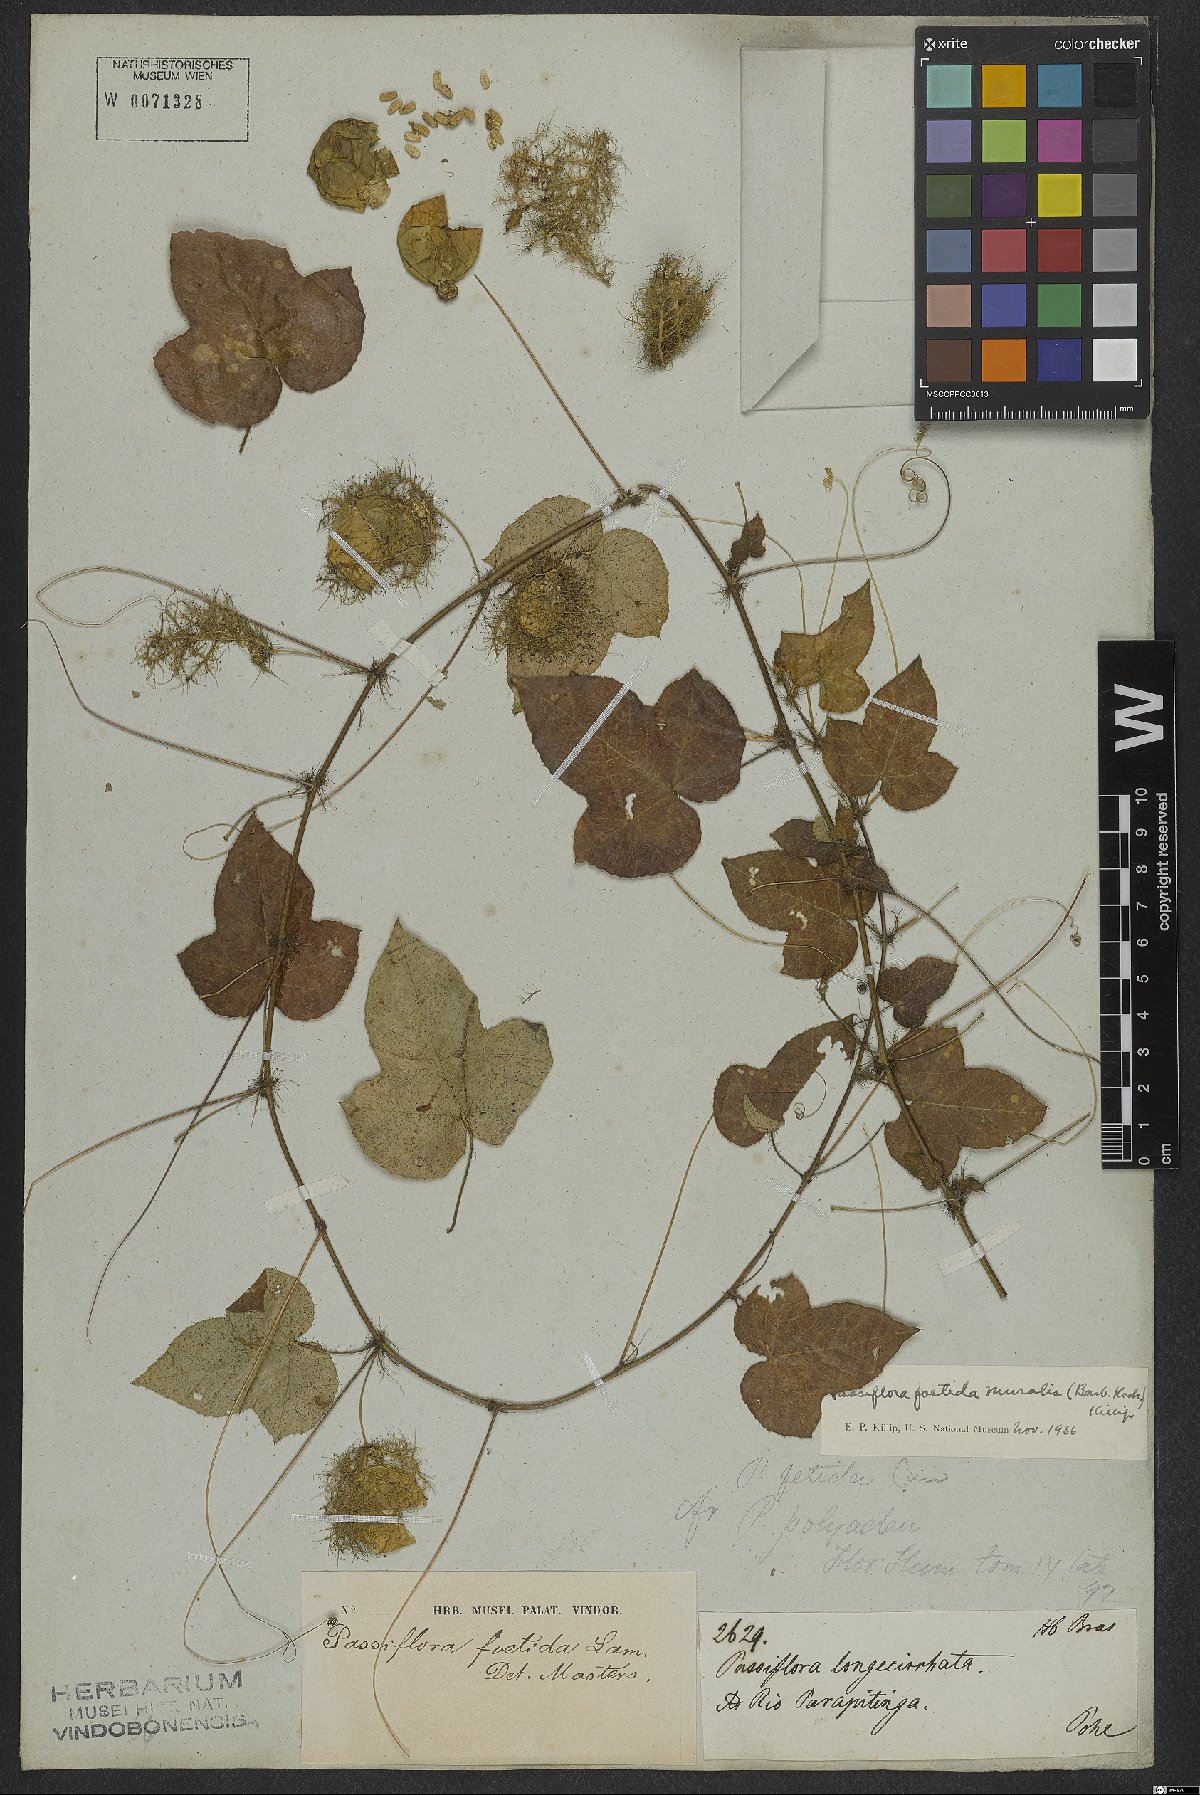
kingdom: Plantae
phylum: Tracheophyta
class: Magnoliopsida
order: Malpighiales
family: Passifloraceae
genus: Passiflora
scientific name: Passiflora foetida
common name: Fetid passionflower
